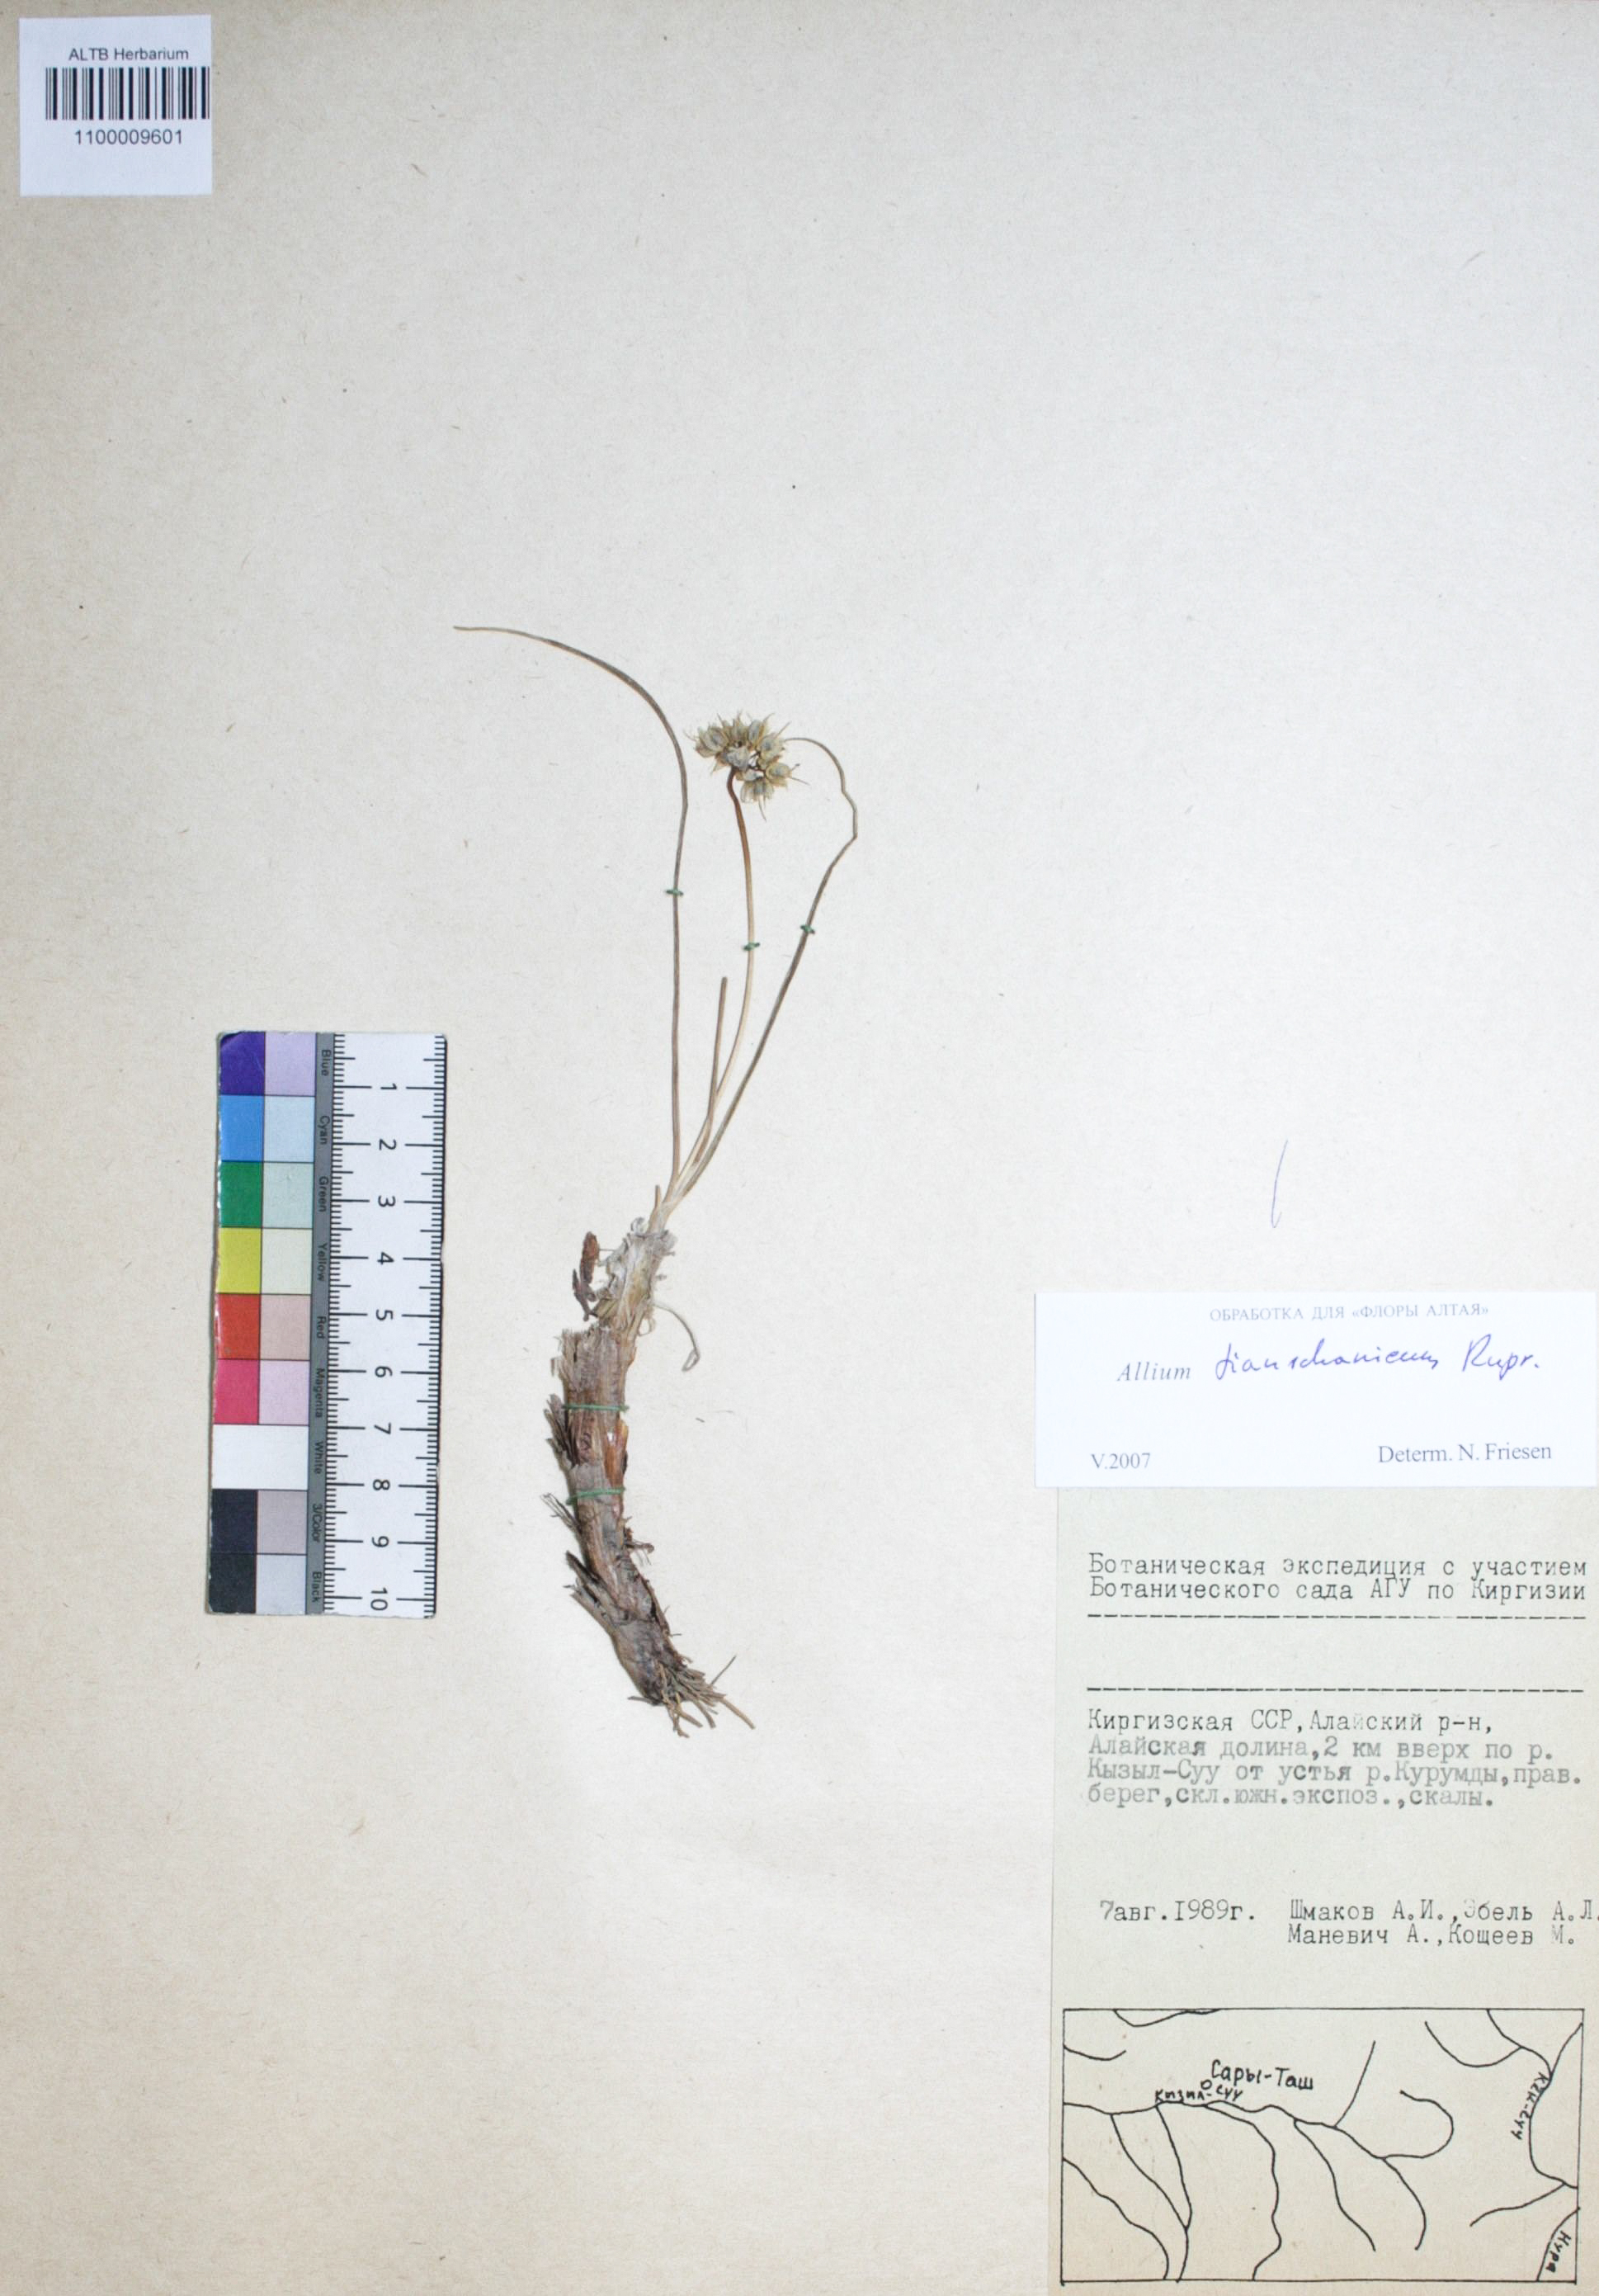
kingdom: Plantae
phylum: Tracheophyta
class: Liliopsida
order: Asparagales
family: Amaryllidaceae
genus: Allium
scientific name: Allium tianschanicum
